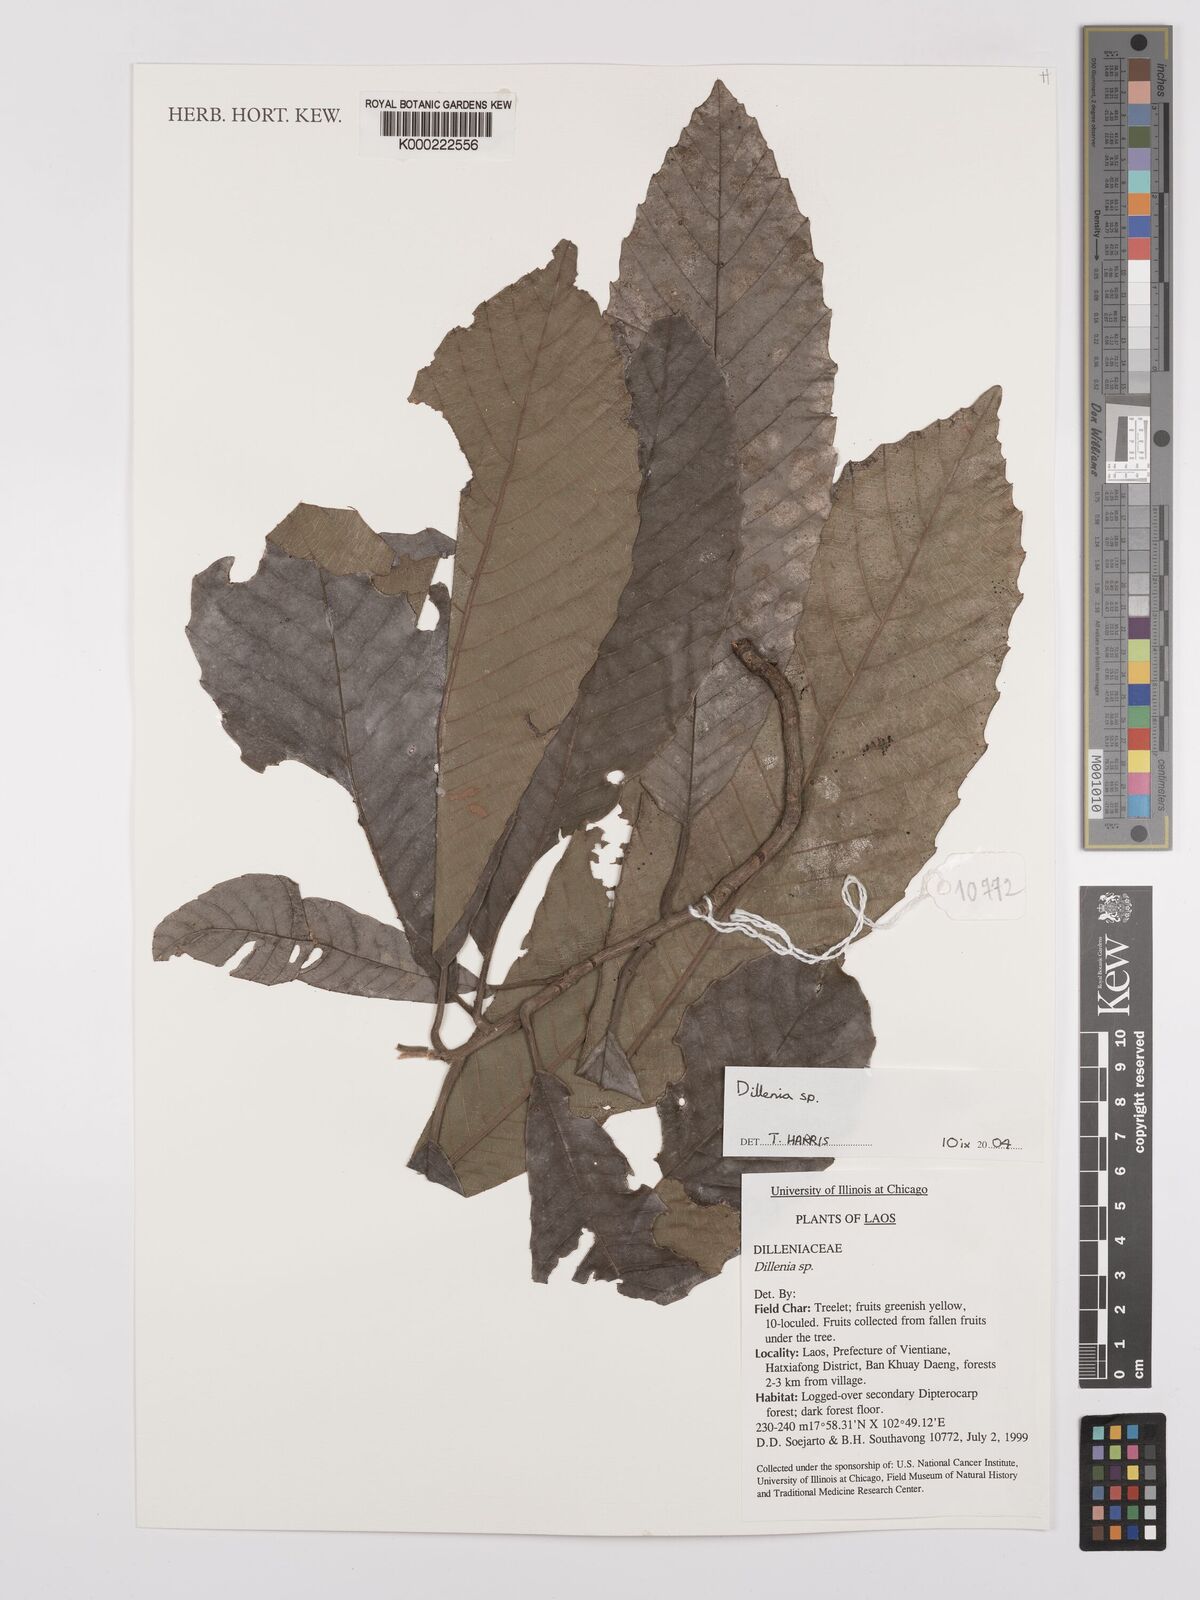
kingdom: Plantae
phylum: Tracheophyta
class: Magnoliopsida
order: Dilleniales
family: Dilleniaceae
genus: Dillenia
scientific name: Dillenia
